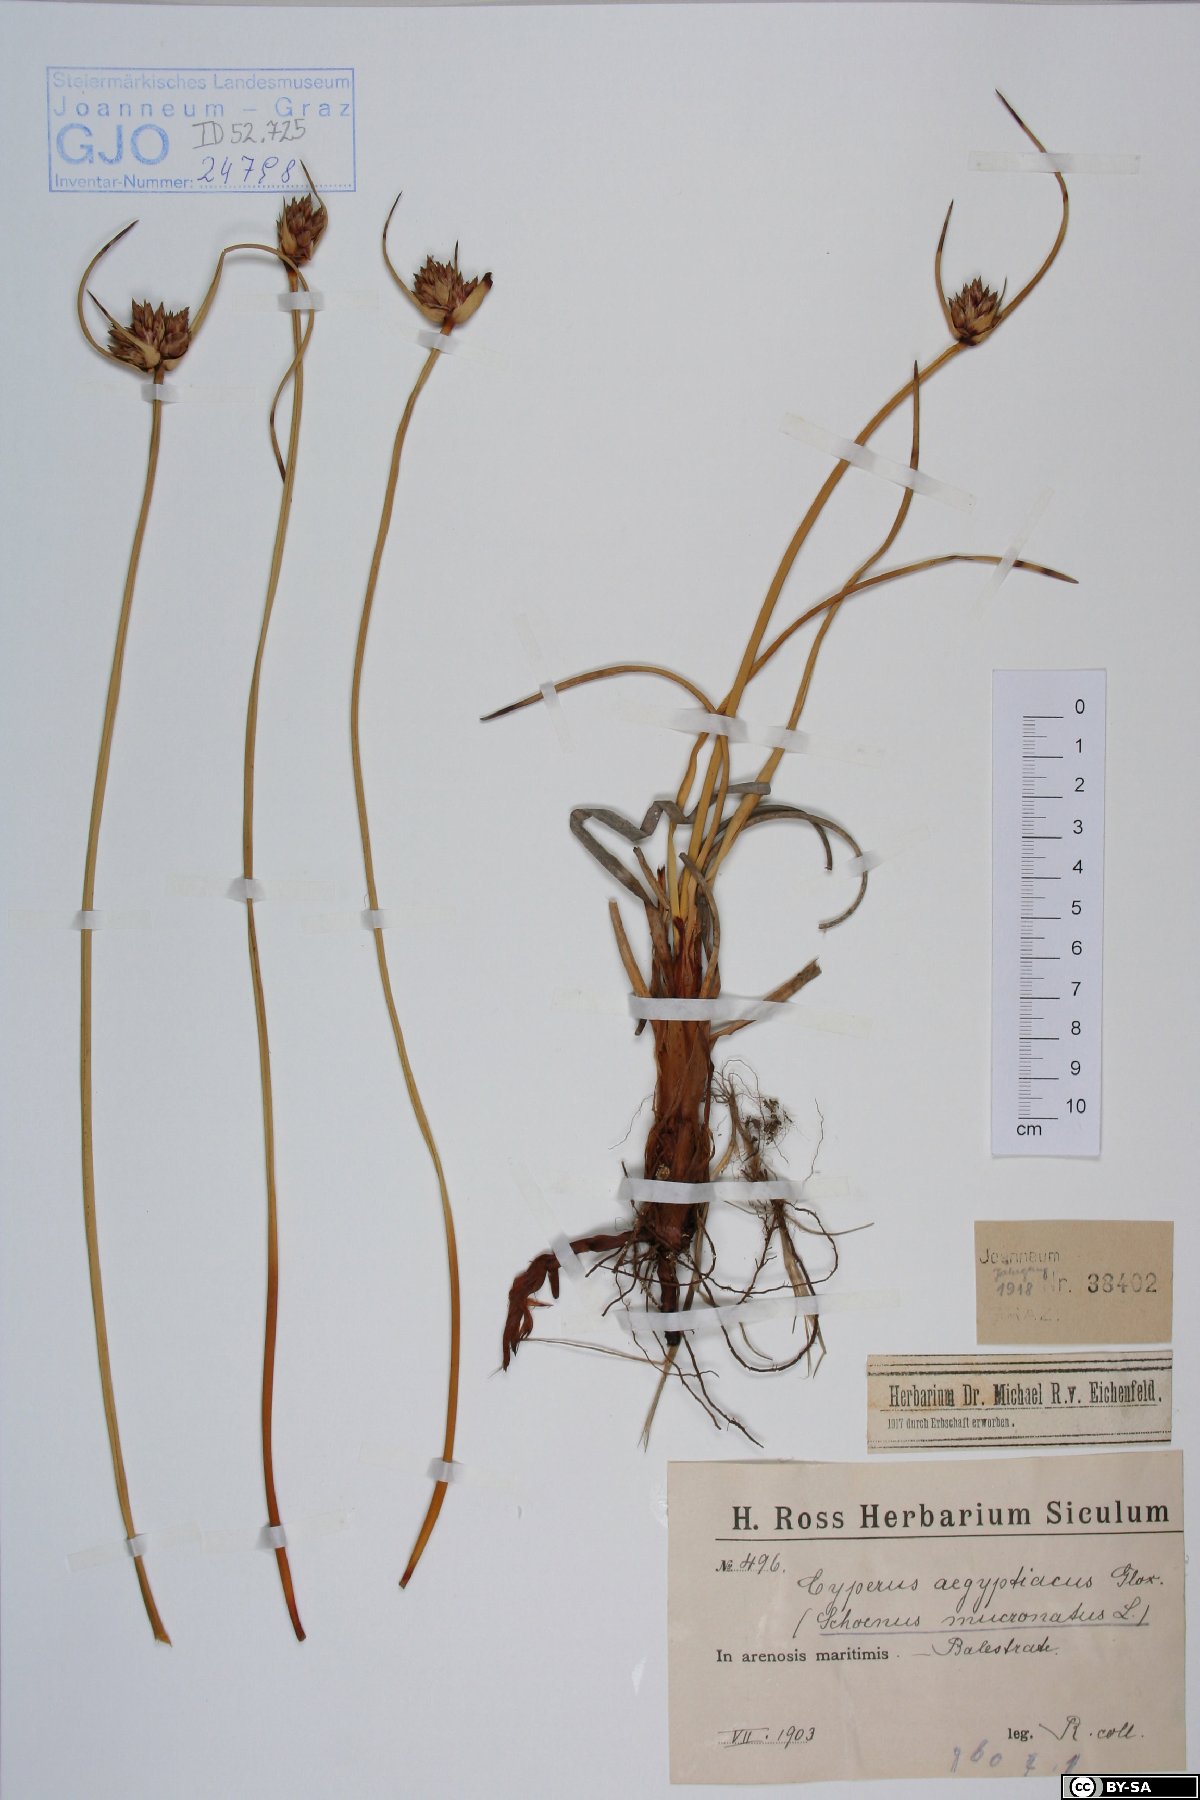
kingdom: Plantae
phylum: Tracheophyta
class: Liliopsida
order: Poales
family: Cyperaceae
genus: Cyperus
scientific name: Cyperus capitatus
